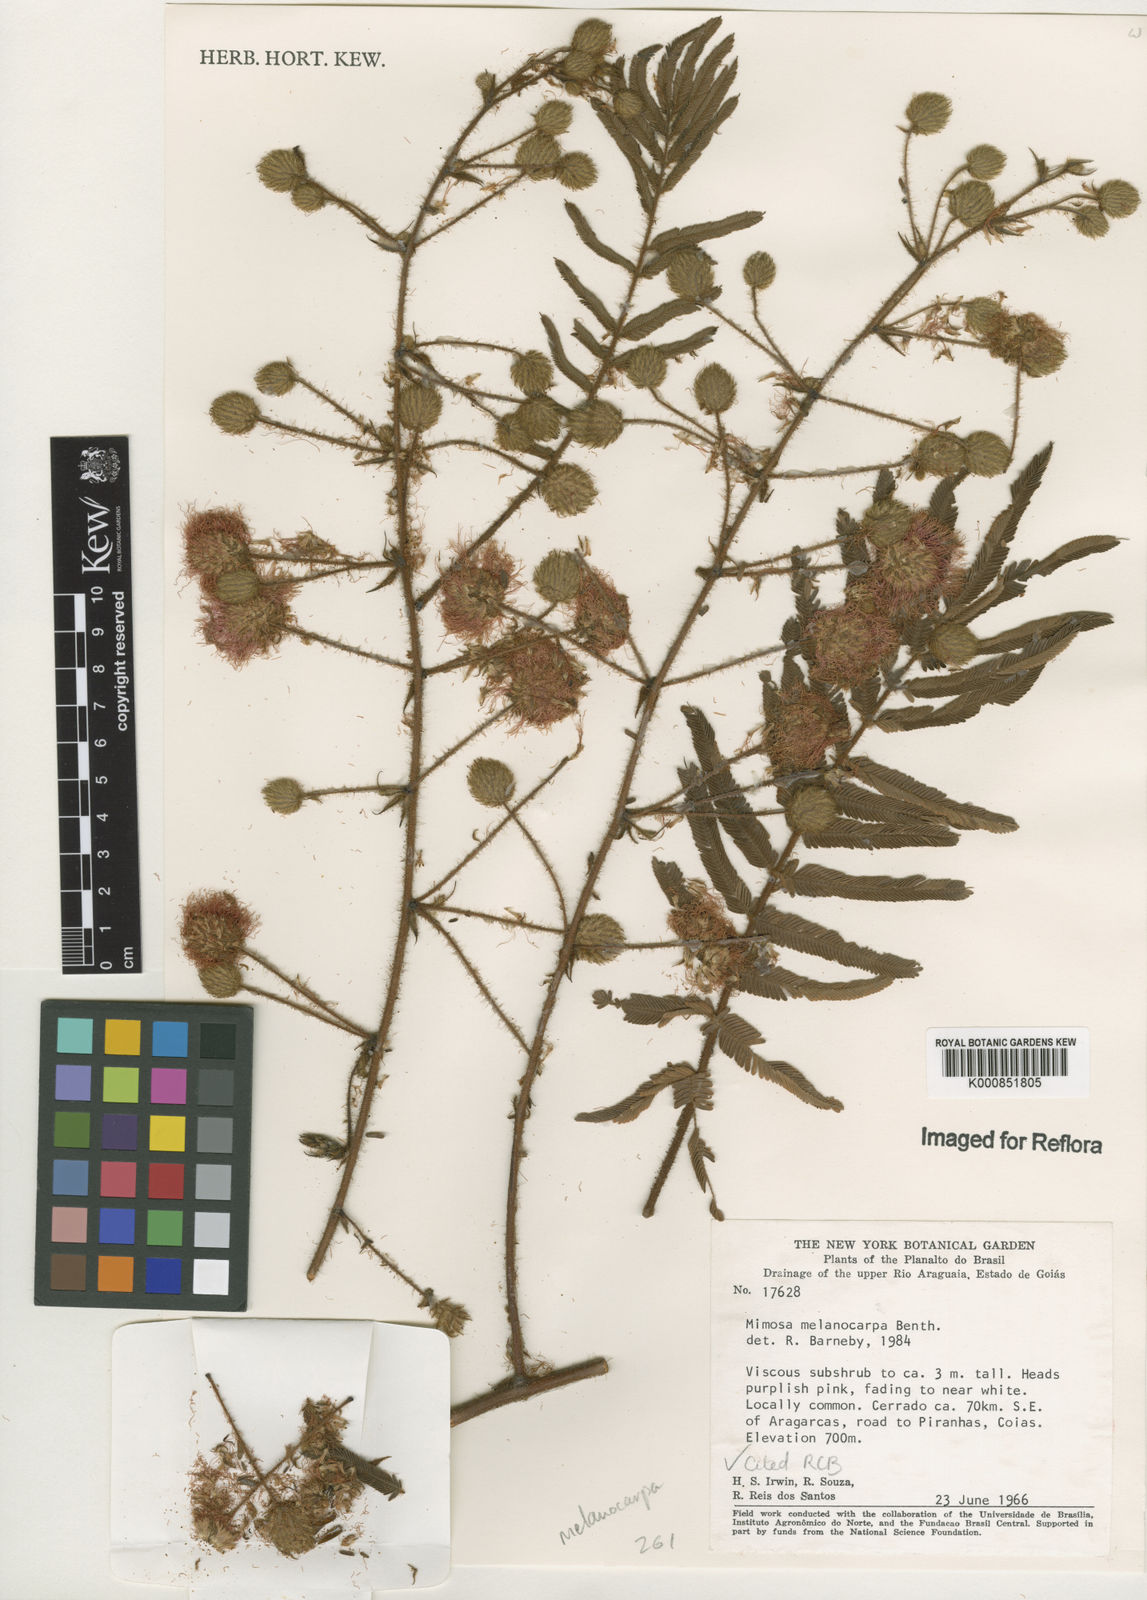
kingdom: Plantae
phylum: Tracheophyta
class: Magnoliopsida
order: Fabales
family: Fabaceae
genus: Mimosa
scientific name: Mimosa melanocarpa
